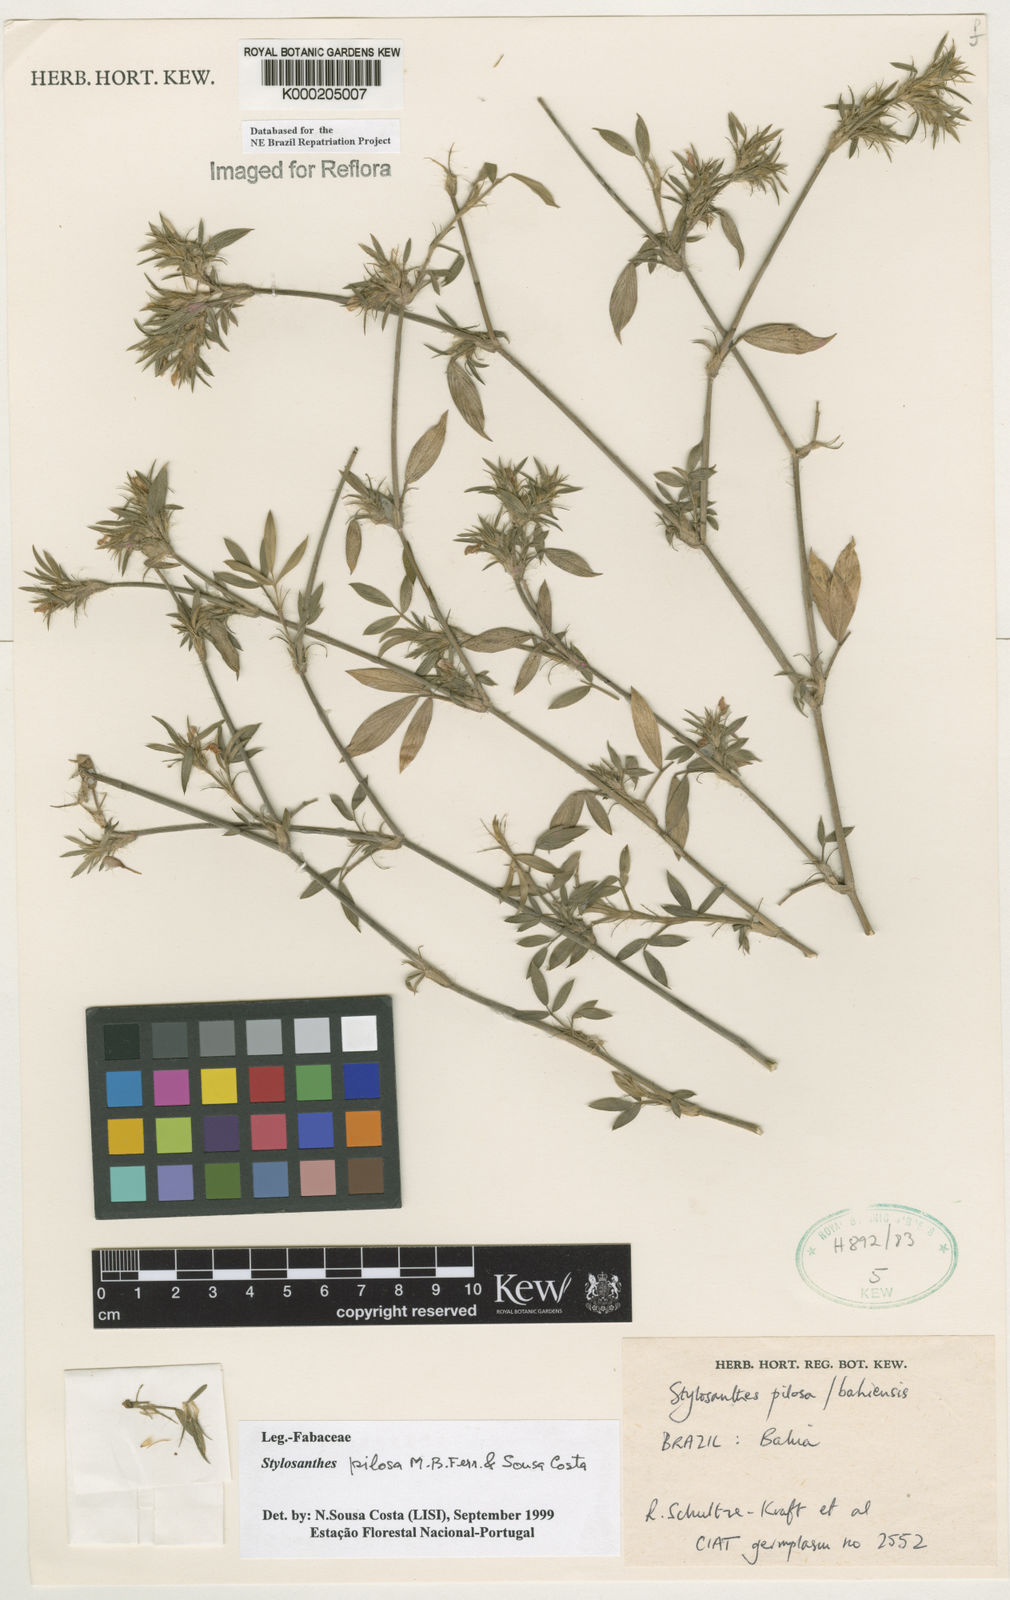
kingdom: Plantae
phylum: Tracheophyta
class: Magnoliopsida
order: Fabales
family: Fabaceae
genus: Stylosanthes
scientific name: Stylosanthes viscosa
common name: Viscid pencil-flower
